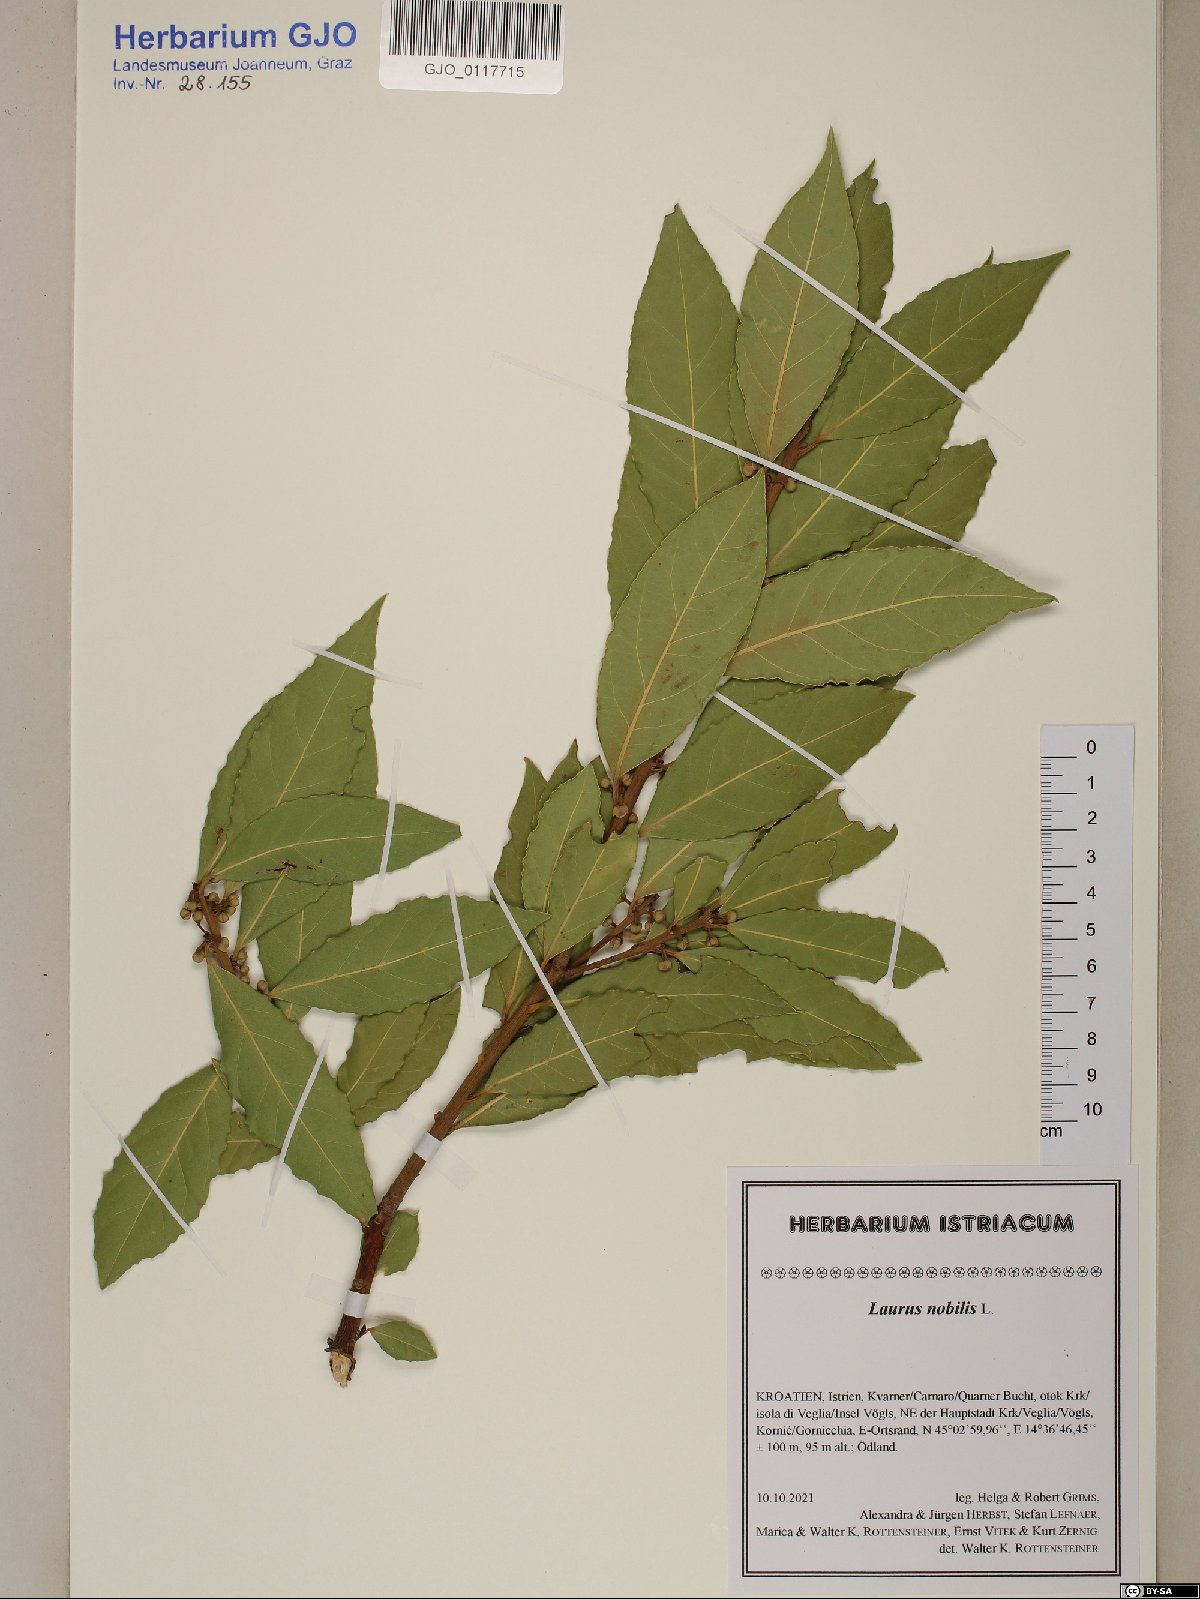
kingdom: Plantae
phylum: Tracheophyta
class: Magnoliopsida
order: Laurales
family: Lauraceae
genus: Laurus
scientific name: Laurus nobilis
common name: Bay
